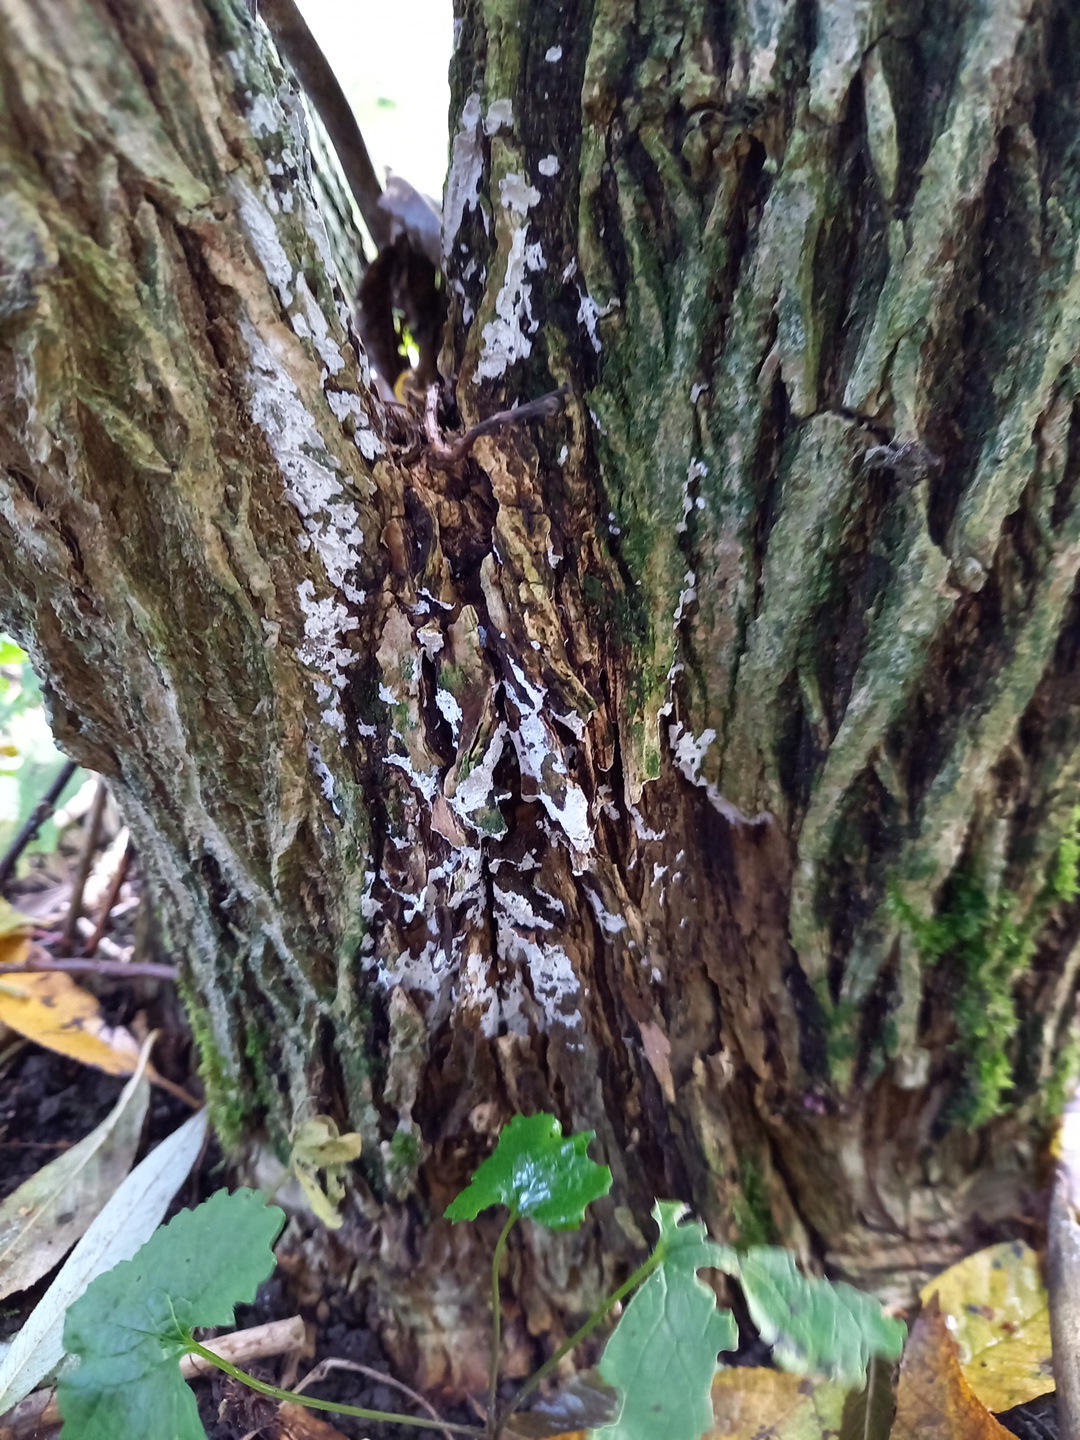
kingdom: Fungi
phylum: Basidiomycota
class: Agaricomycetes
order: Corticiales
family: Corticiaceae
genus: Lyomyces
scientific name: Lyomyces sambuci
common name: almindelig hyldehinde
